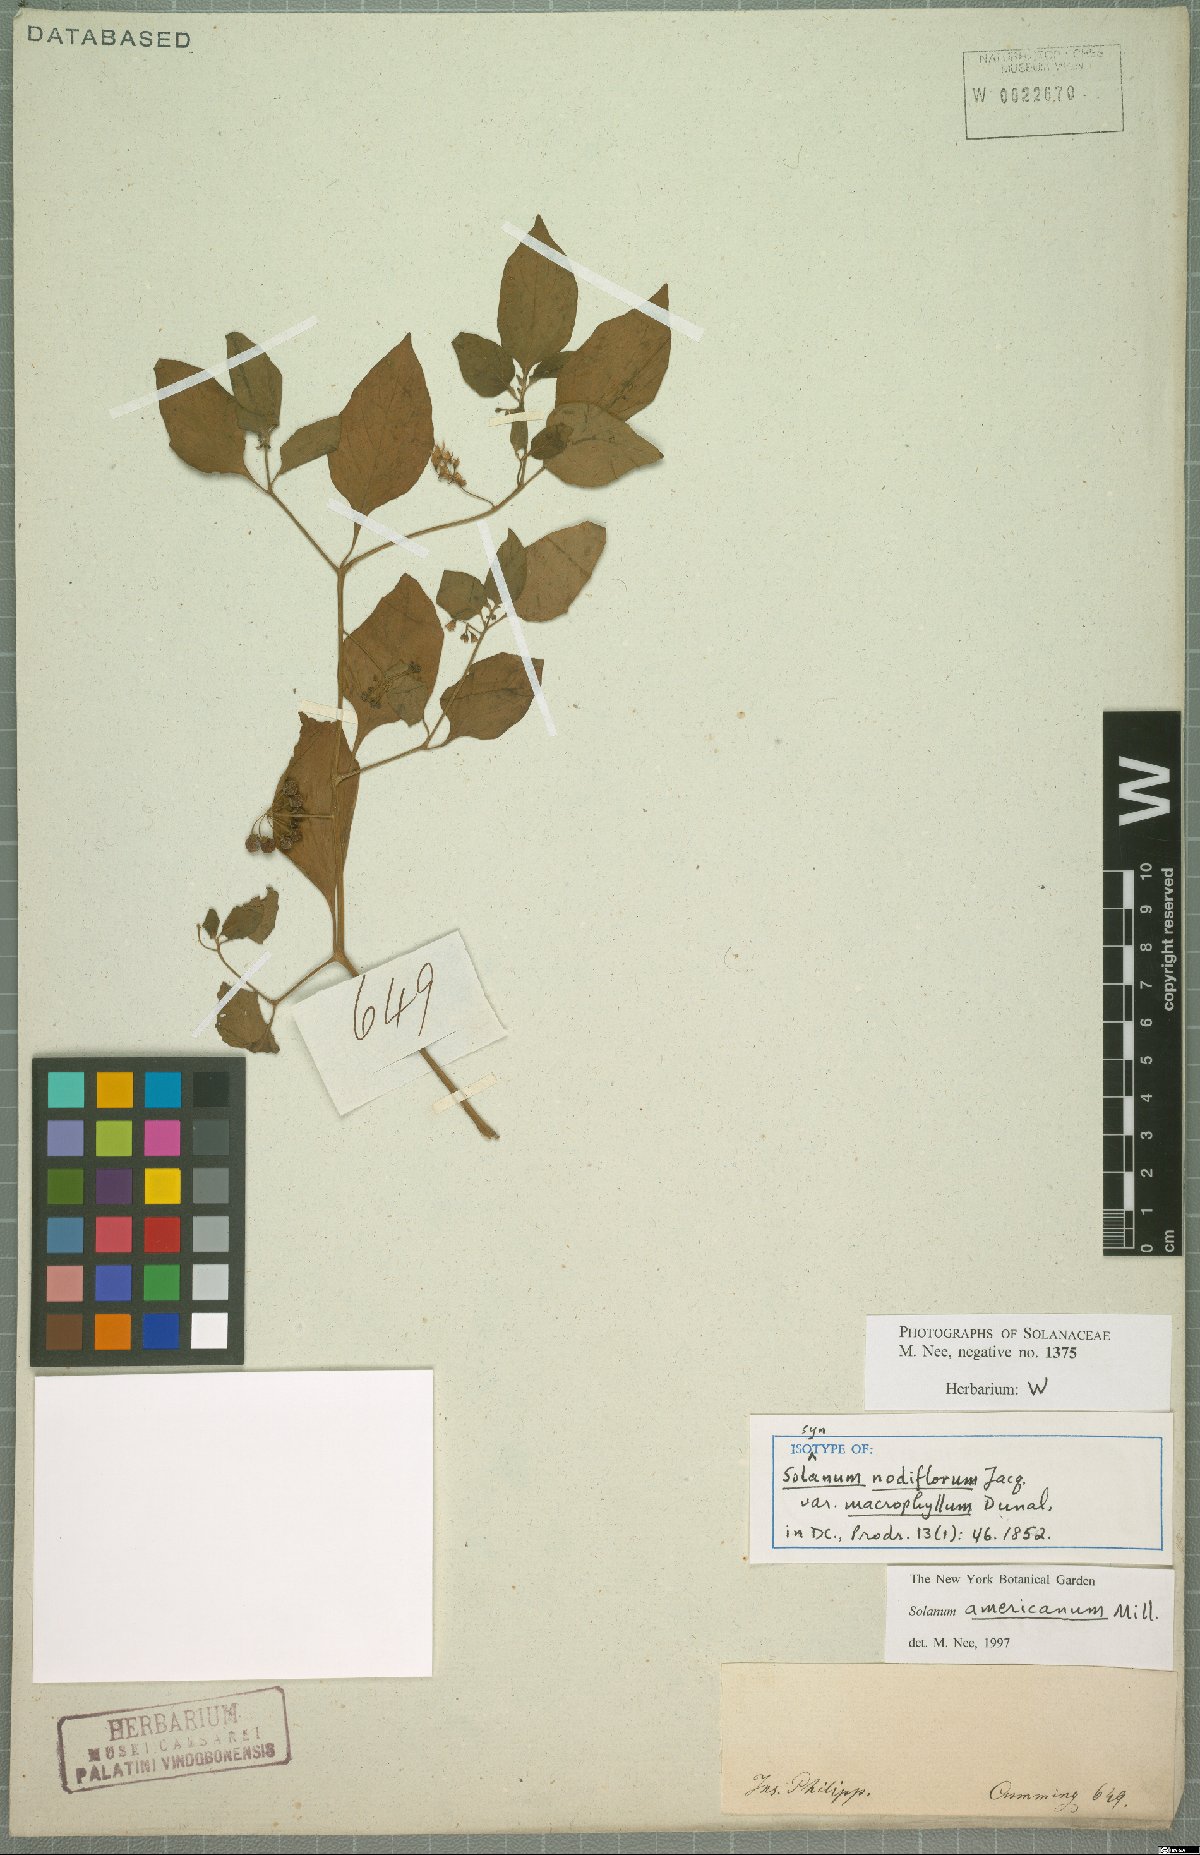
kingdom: Plantae
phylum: Tracheophyta
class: Magnoliopsida
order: Solanales
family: Solanaceae
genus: Solanum
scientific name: Solanum americanum
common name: American black nightshade
